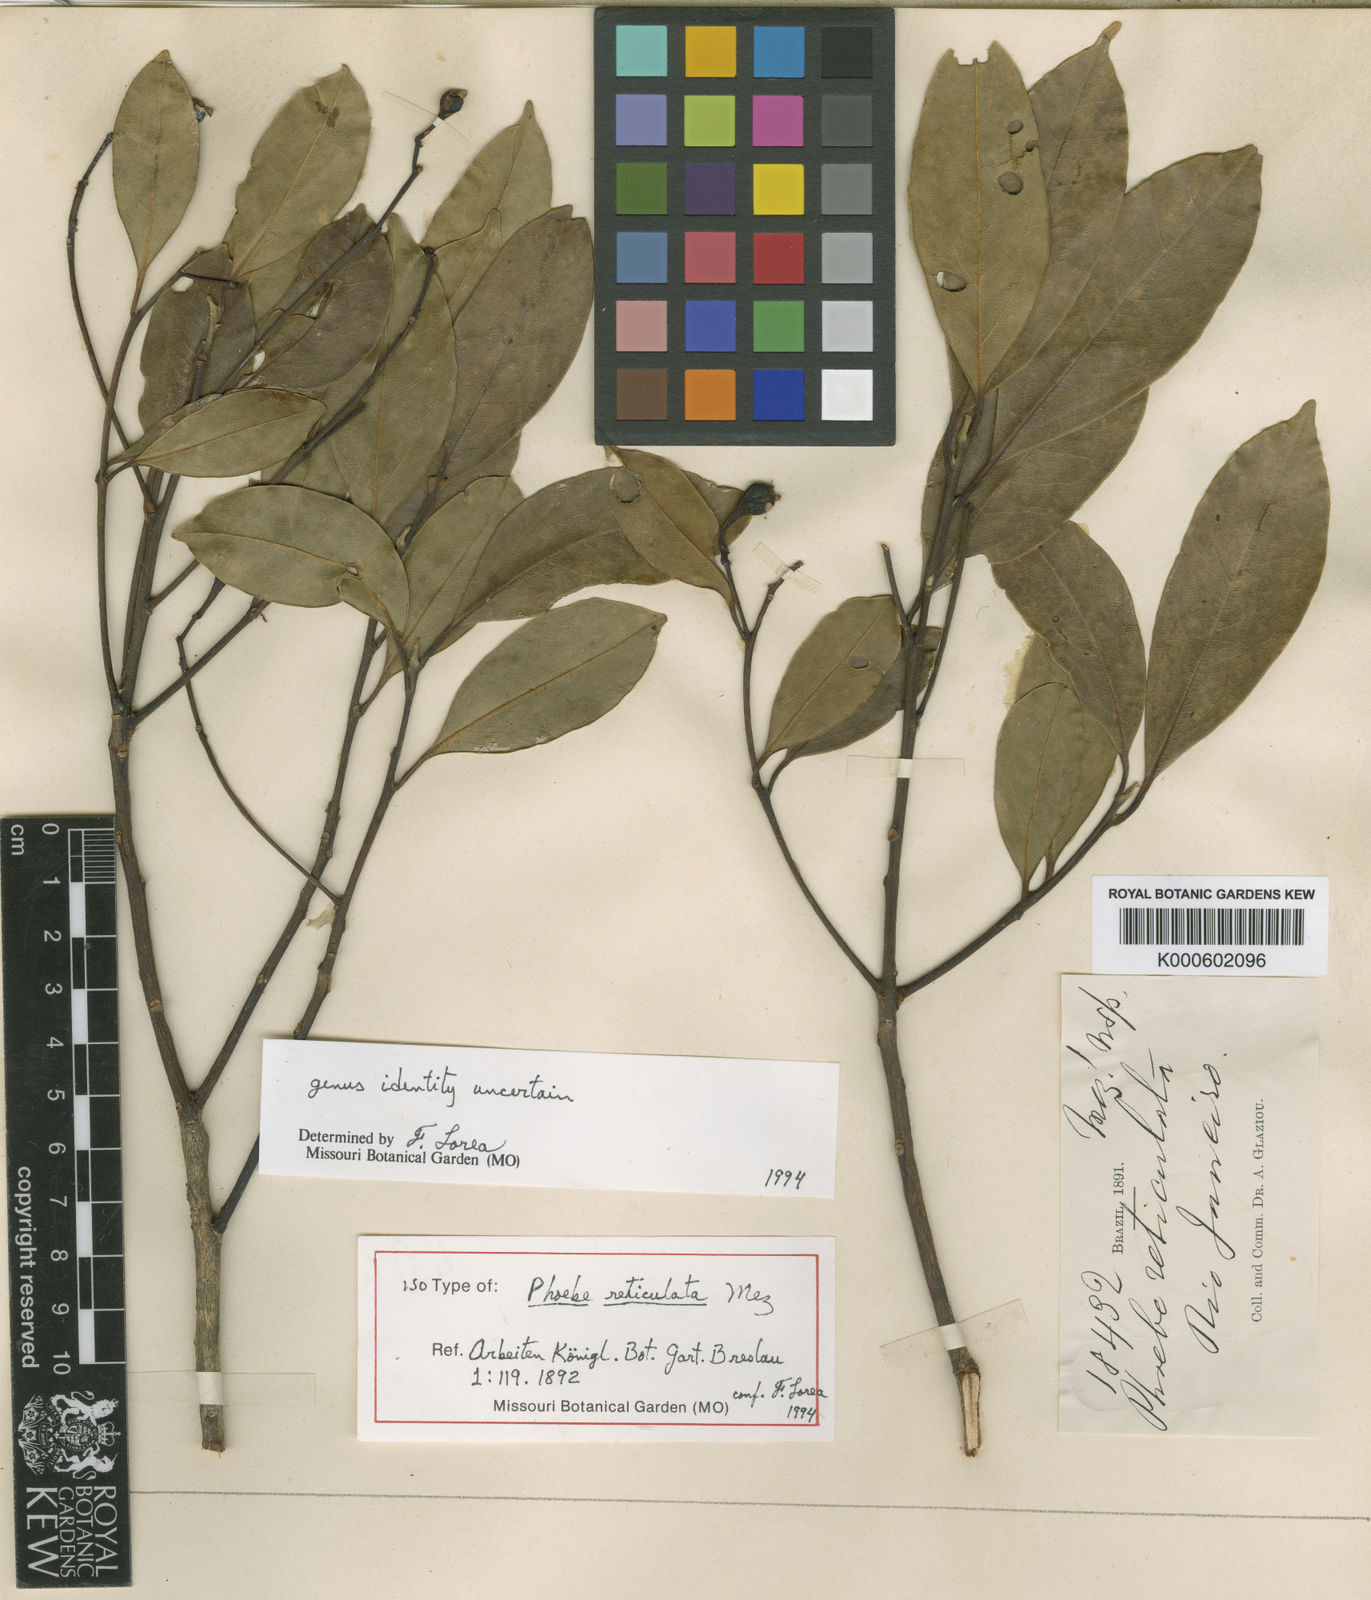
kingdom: Plantae
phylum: Tracheophyta
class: Magnoliopsida
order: Laurales
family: Lauraceae
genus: Mespilodaphne
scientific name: Mespilodaphne corymbosa
